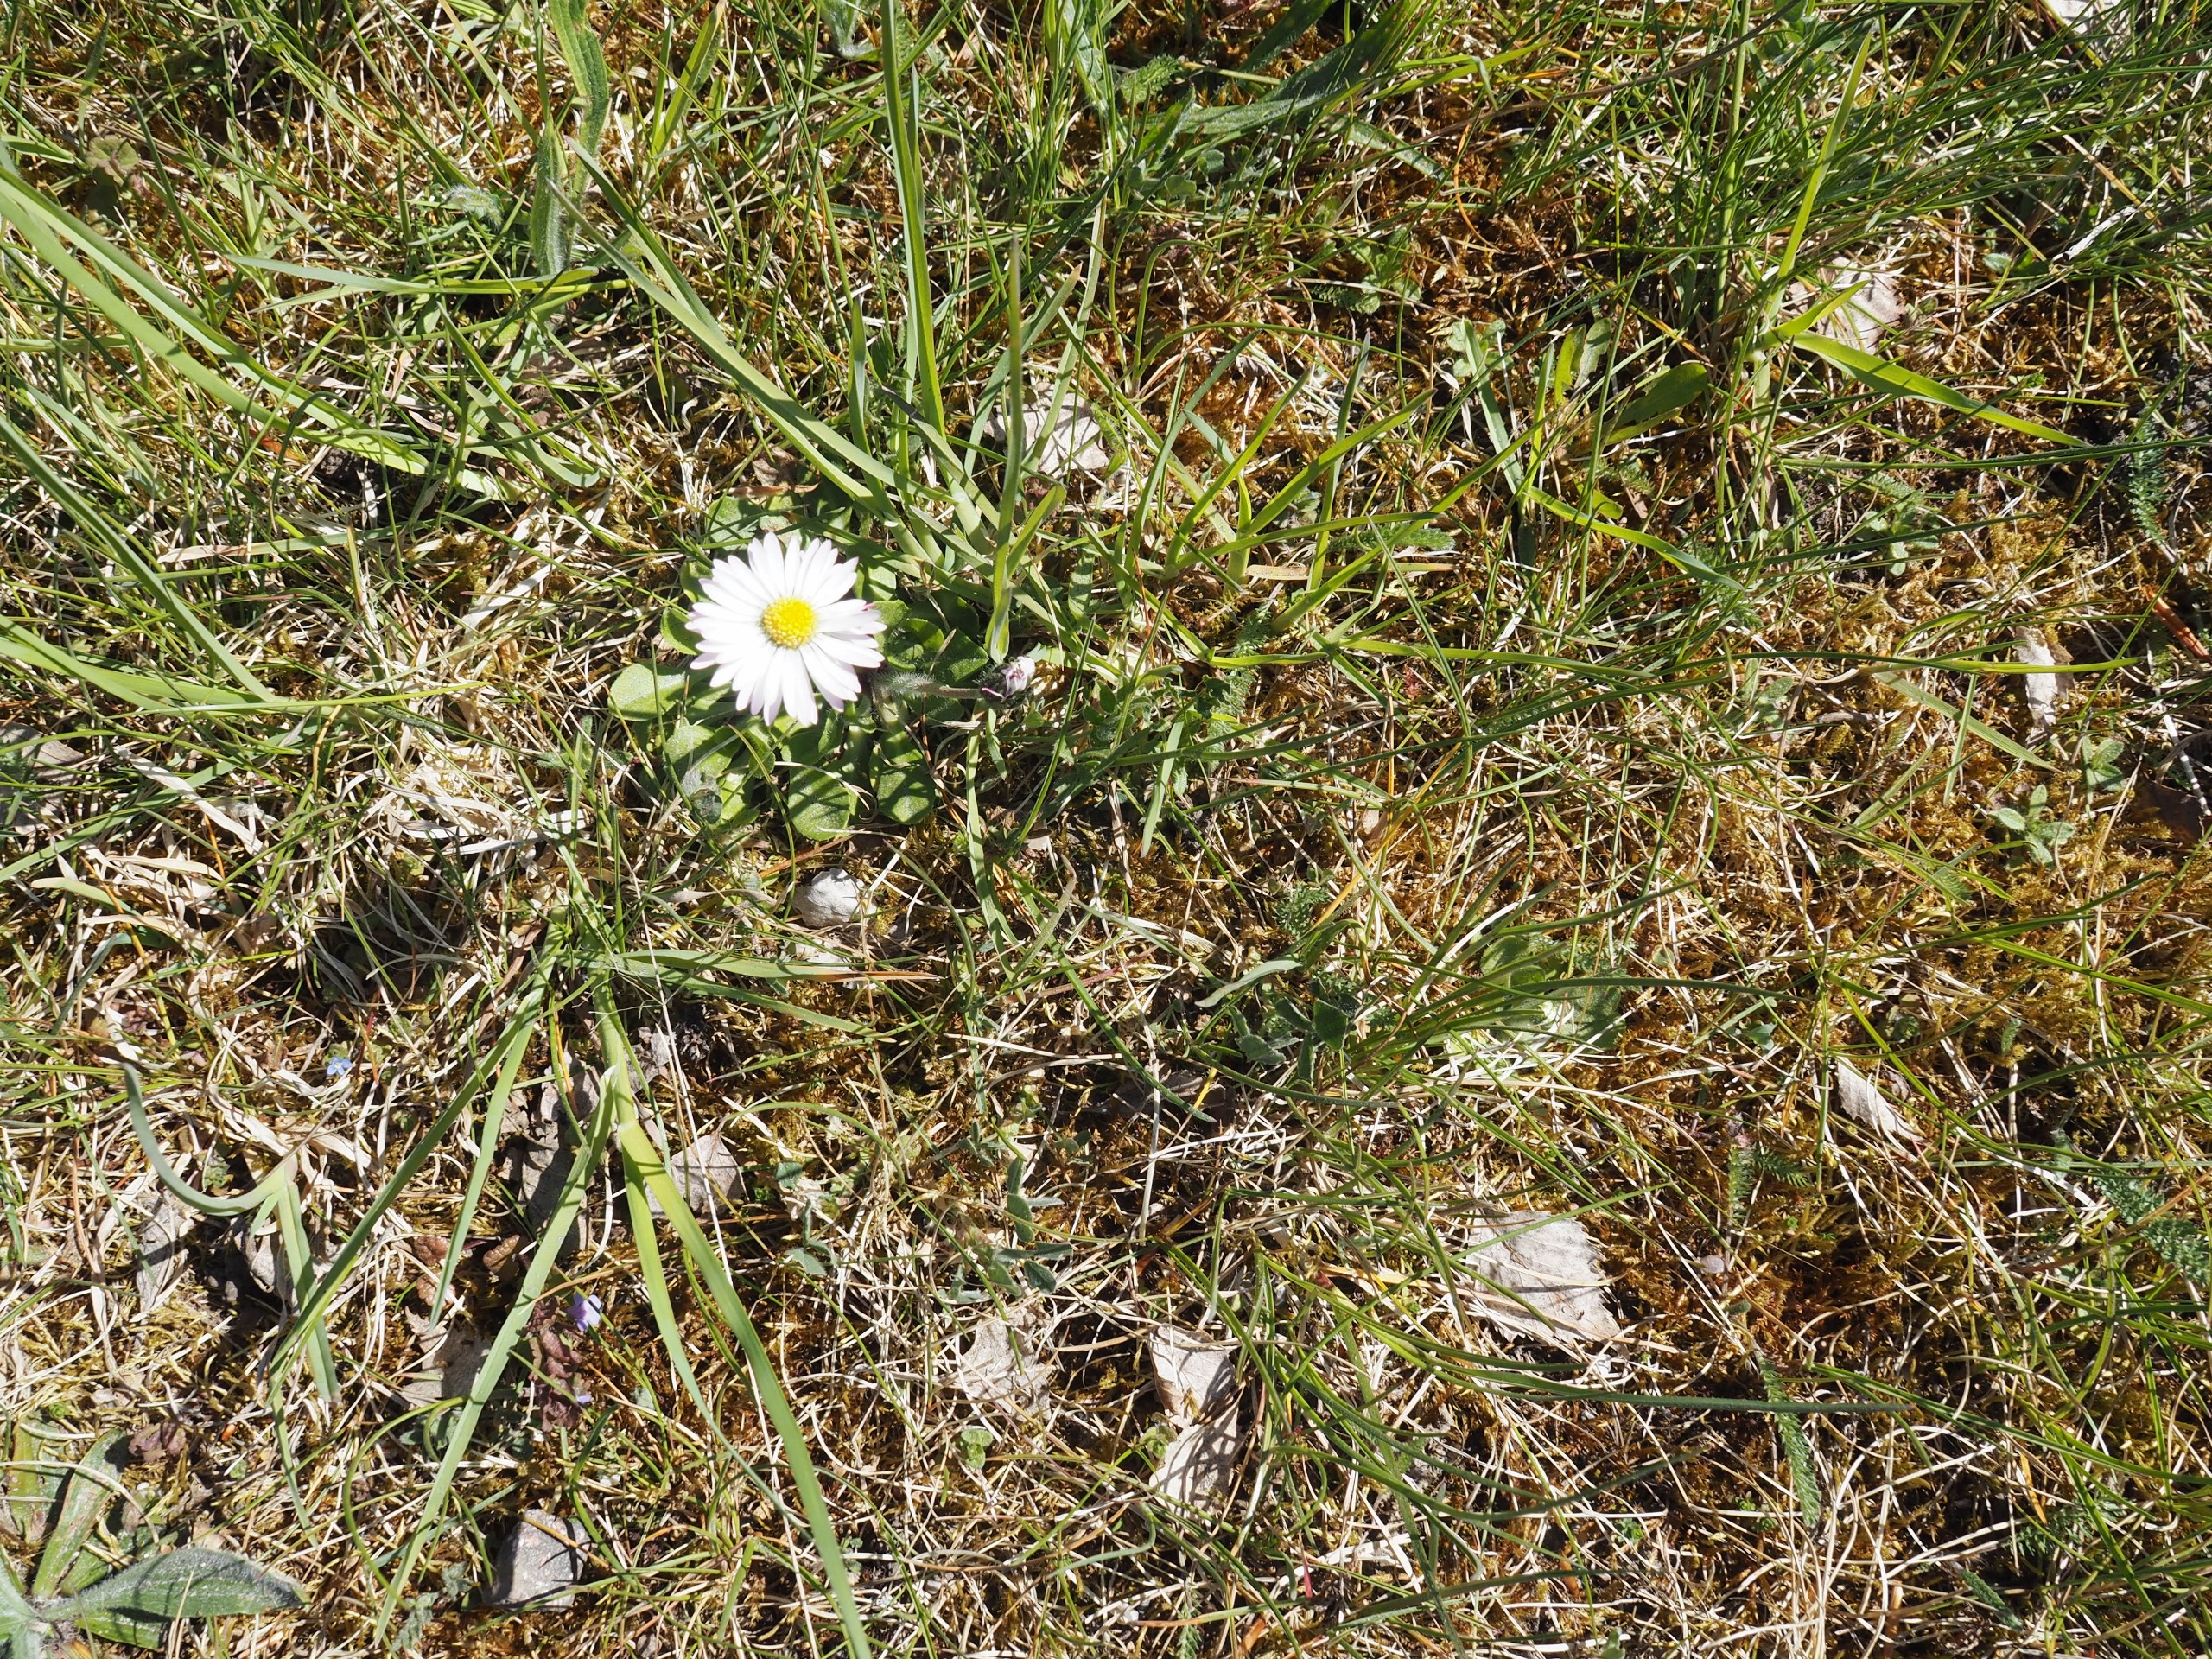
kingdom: Plantae
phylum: Tracheophyta
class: Magnoliopsida
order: Asterales
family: Asteraceae
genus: Bellis
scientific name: Bellis perennis
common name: Tusindfryd
